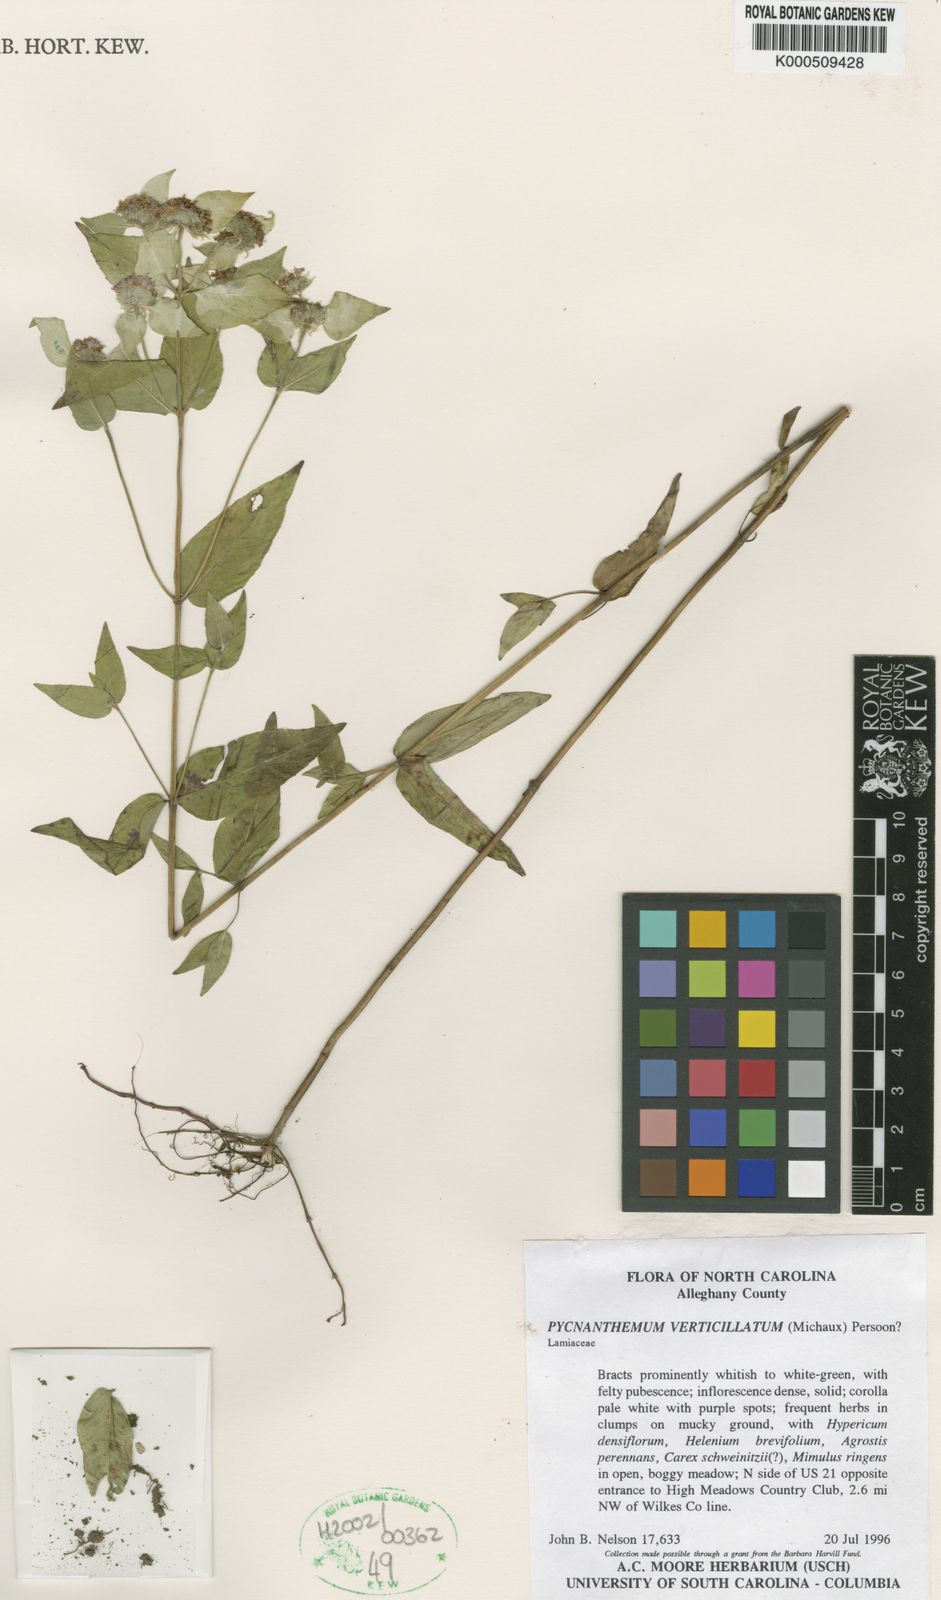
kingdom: Plantae
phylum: Tracheophyta
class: Magnoliopsida
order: Lamiales
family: Lamiaceae
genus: Pycnanthemum
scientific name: Pycnanthemum verticillatum
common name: Whorled mountain-mint
